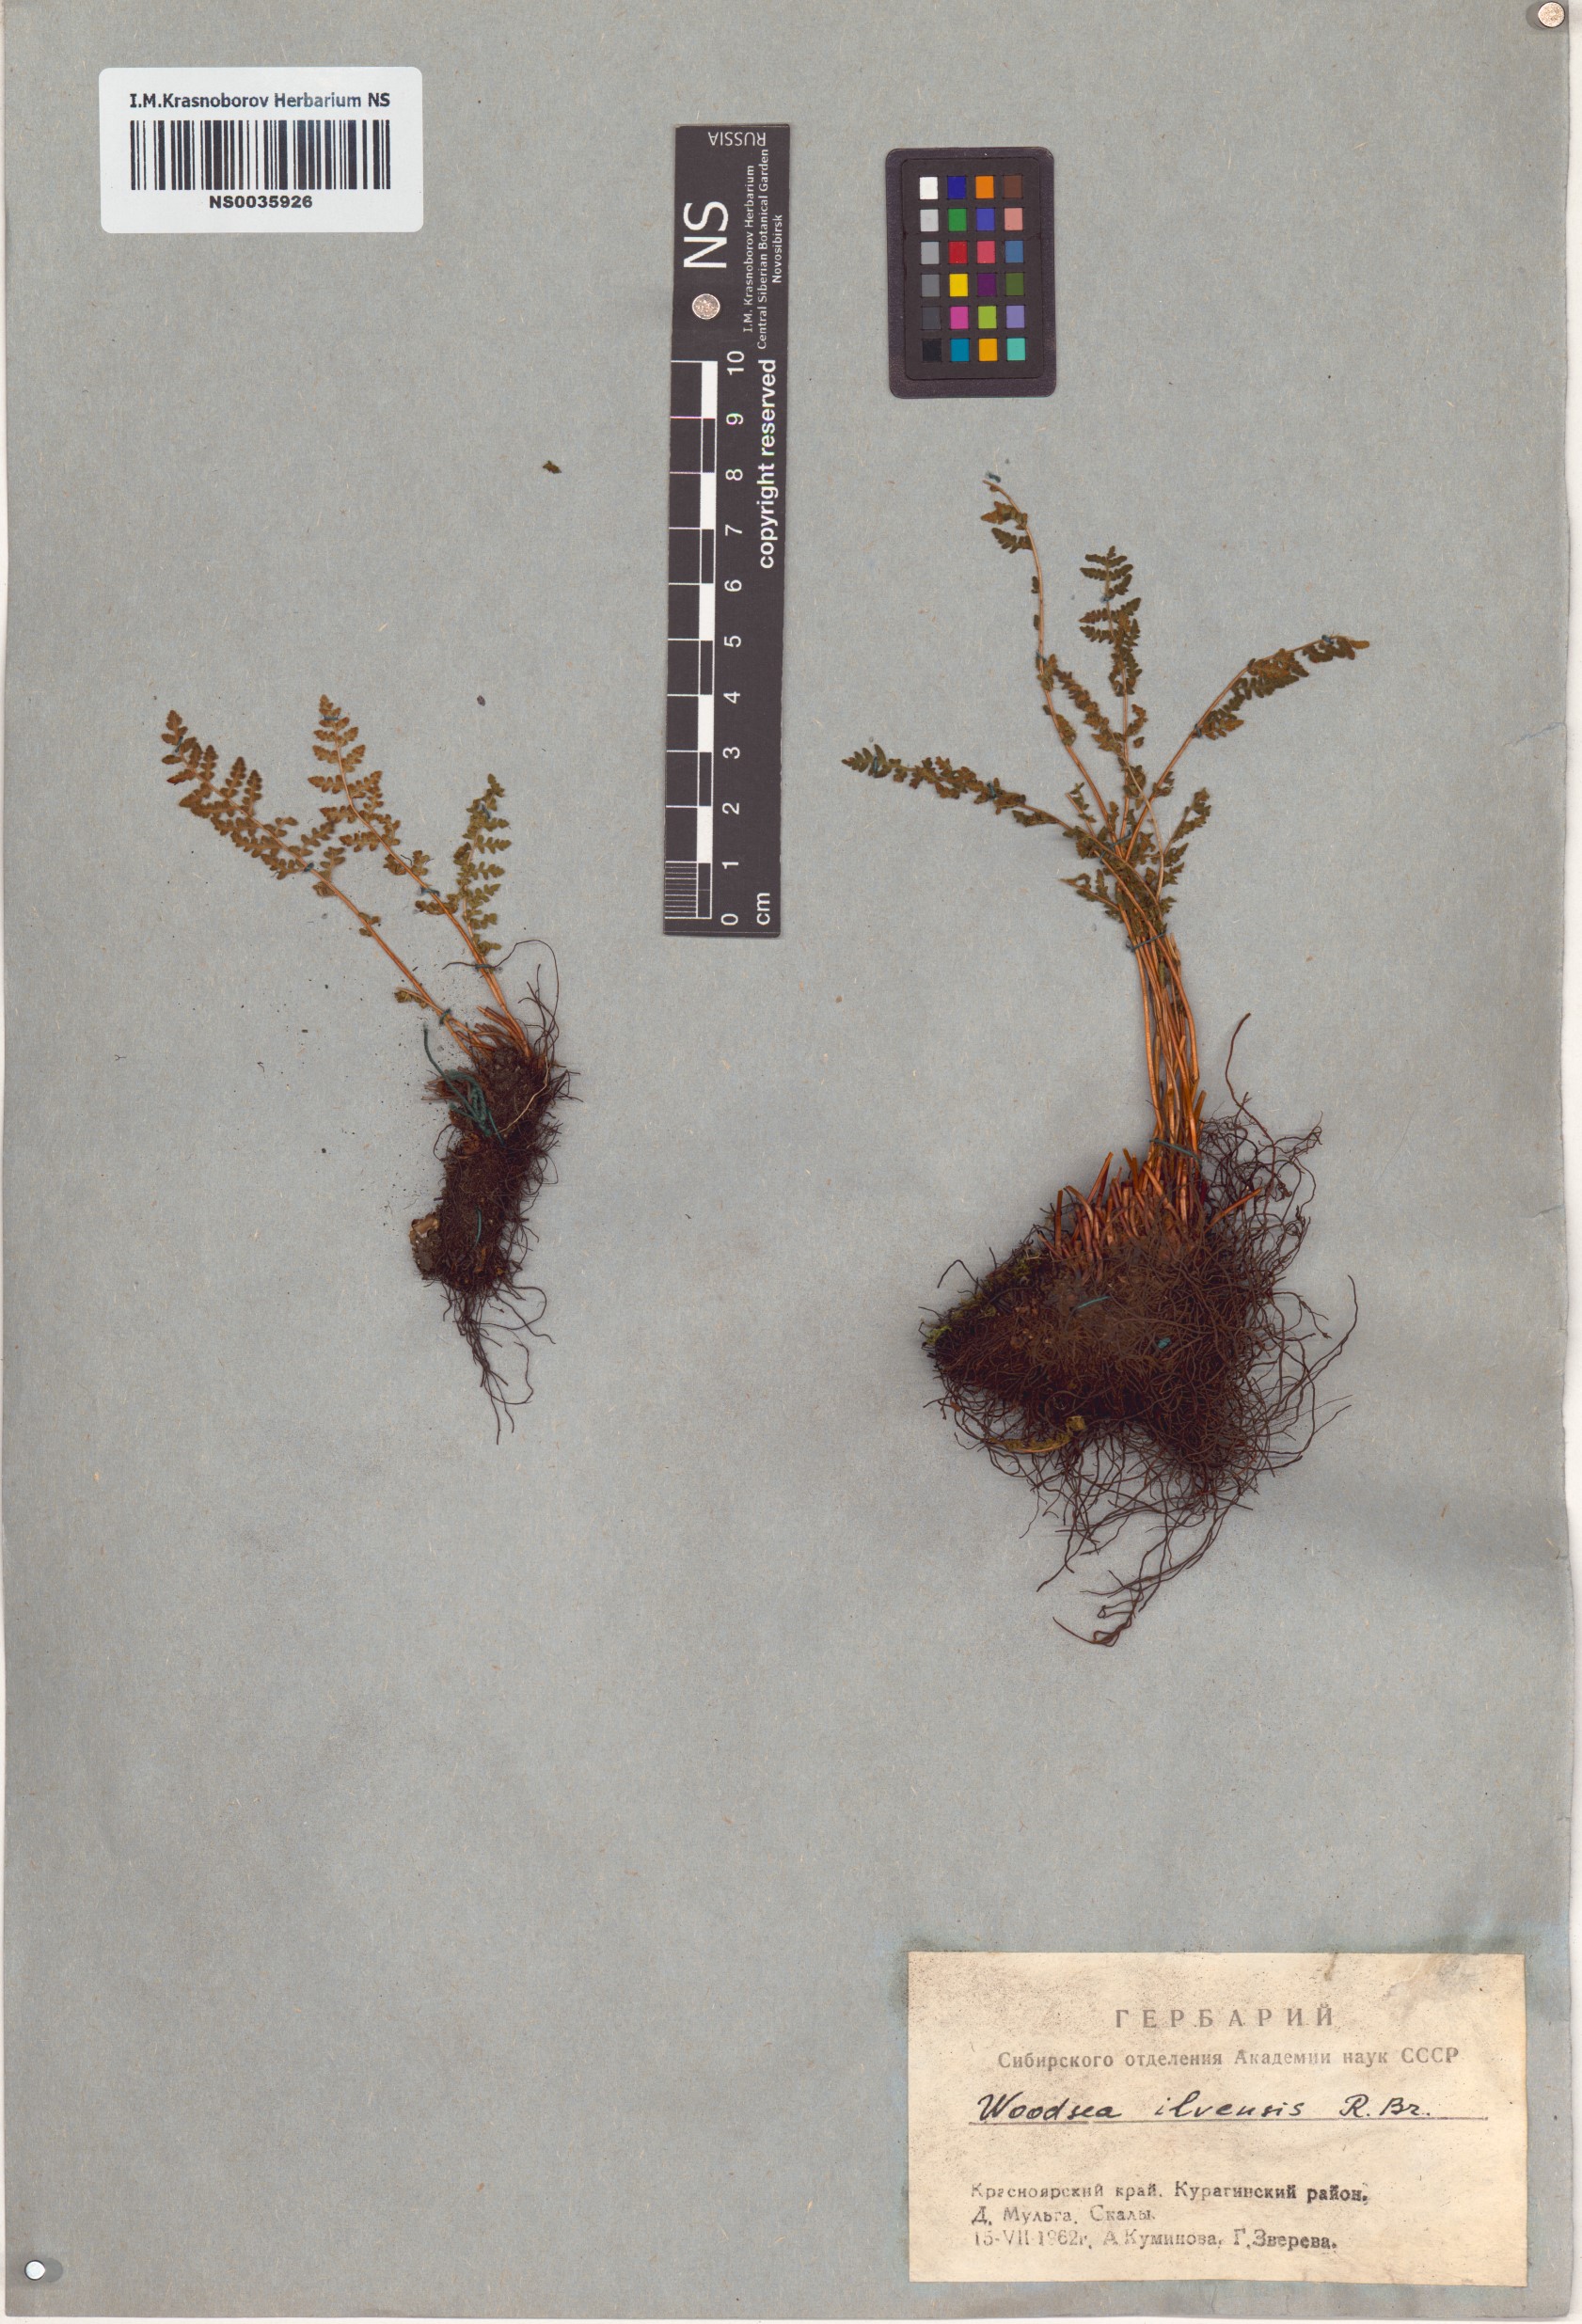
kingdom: Plantae
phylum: Tracheophyta
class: Polypodiopsida
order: Polypodiales
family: Woodsiaceae
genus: Woodsia
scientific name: Woodsia ilvensis
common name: Fragrant woodsia
